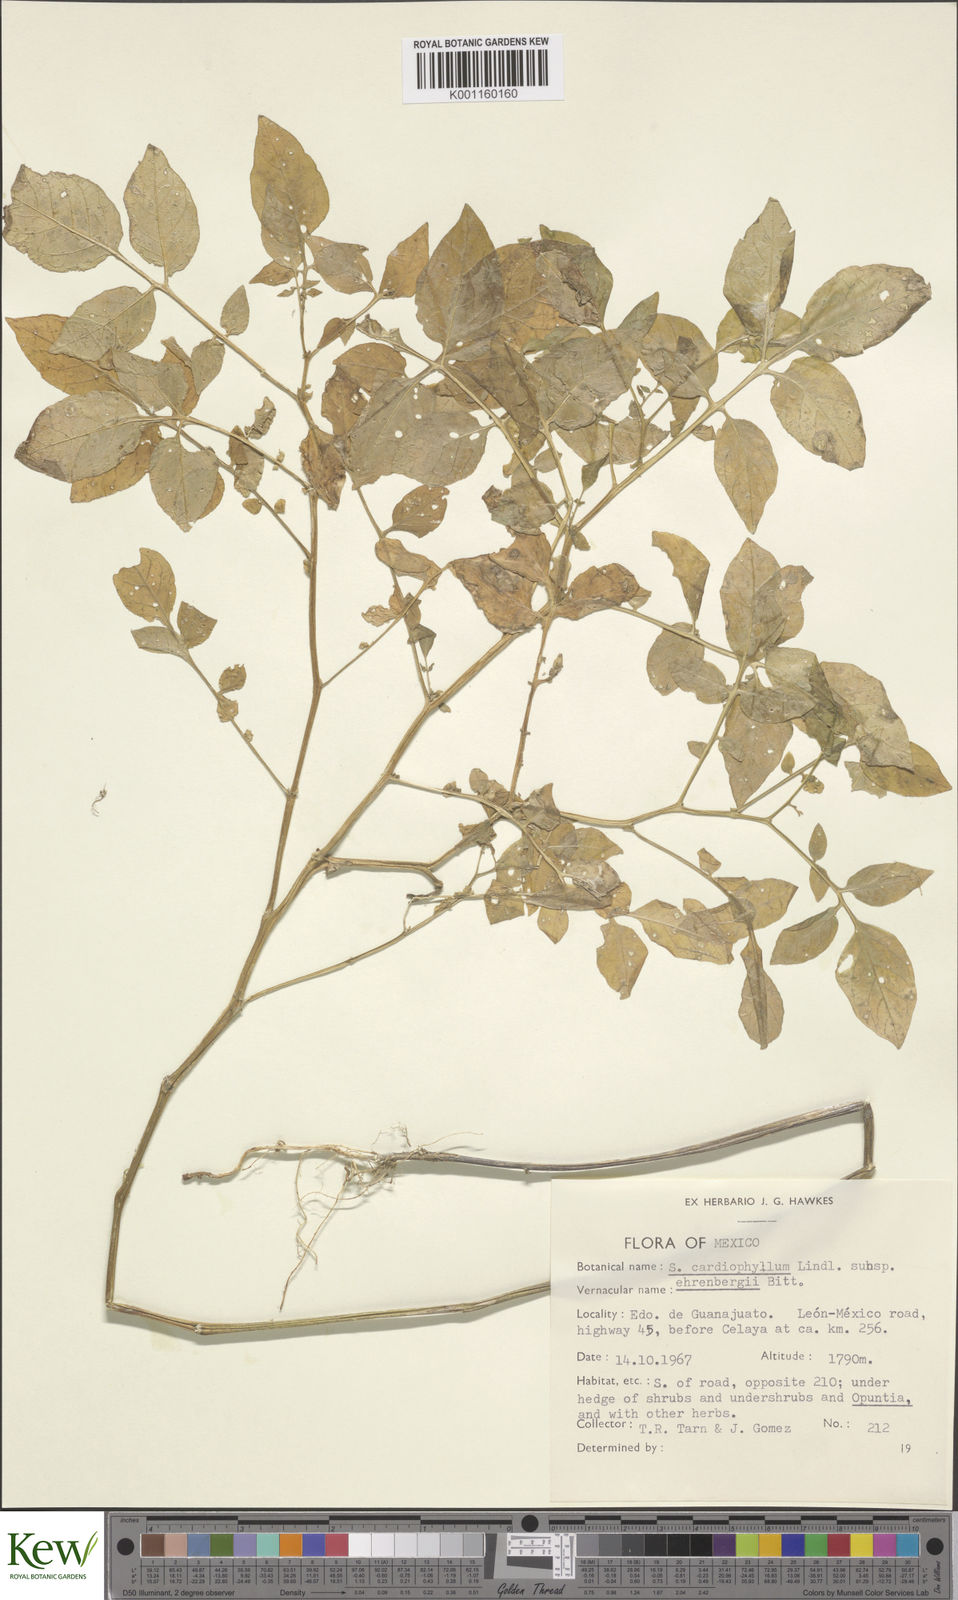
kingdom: Plantae
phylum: Tracheophyta
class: Magnoliopsida
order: Solanales
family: Solanaceae
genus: Solanum
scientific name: Solanum cardiophyllum
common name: Heartleaf horsenettle
